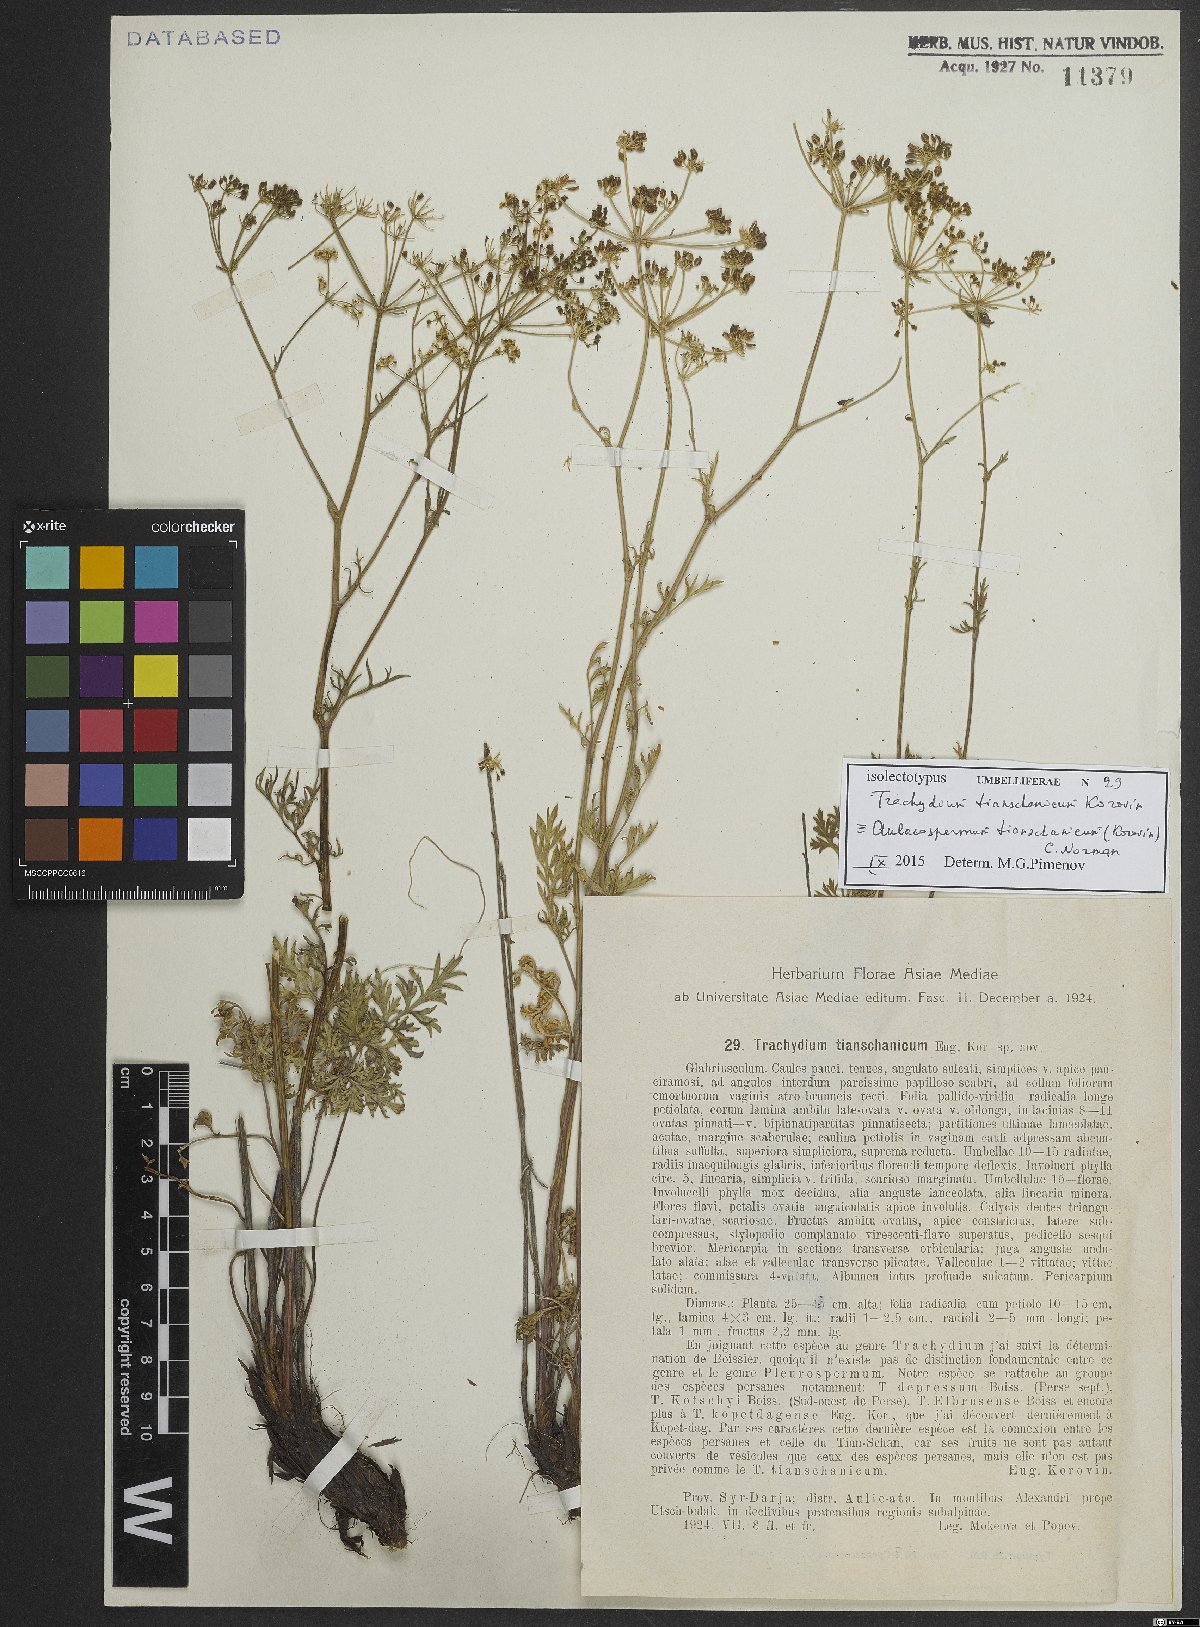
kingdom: Plantae
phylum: Tracheophyta
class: Magnoliopsida
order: Apiales
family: Apiaceae
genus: Aulacospermum
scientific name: Aulacospermum tianschanicum
